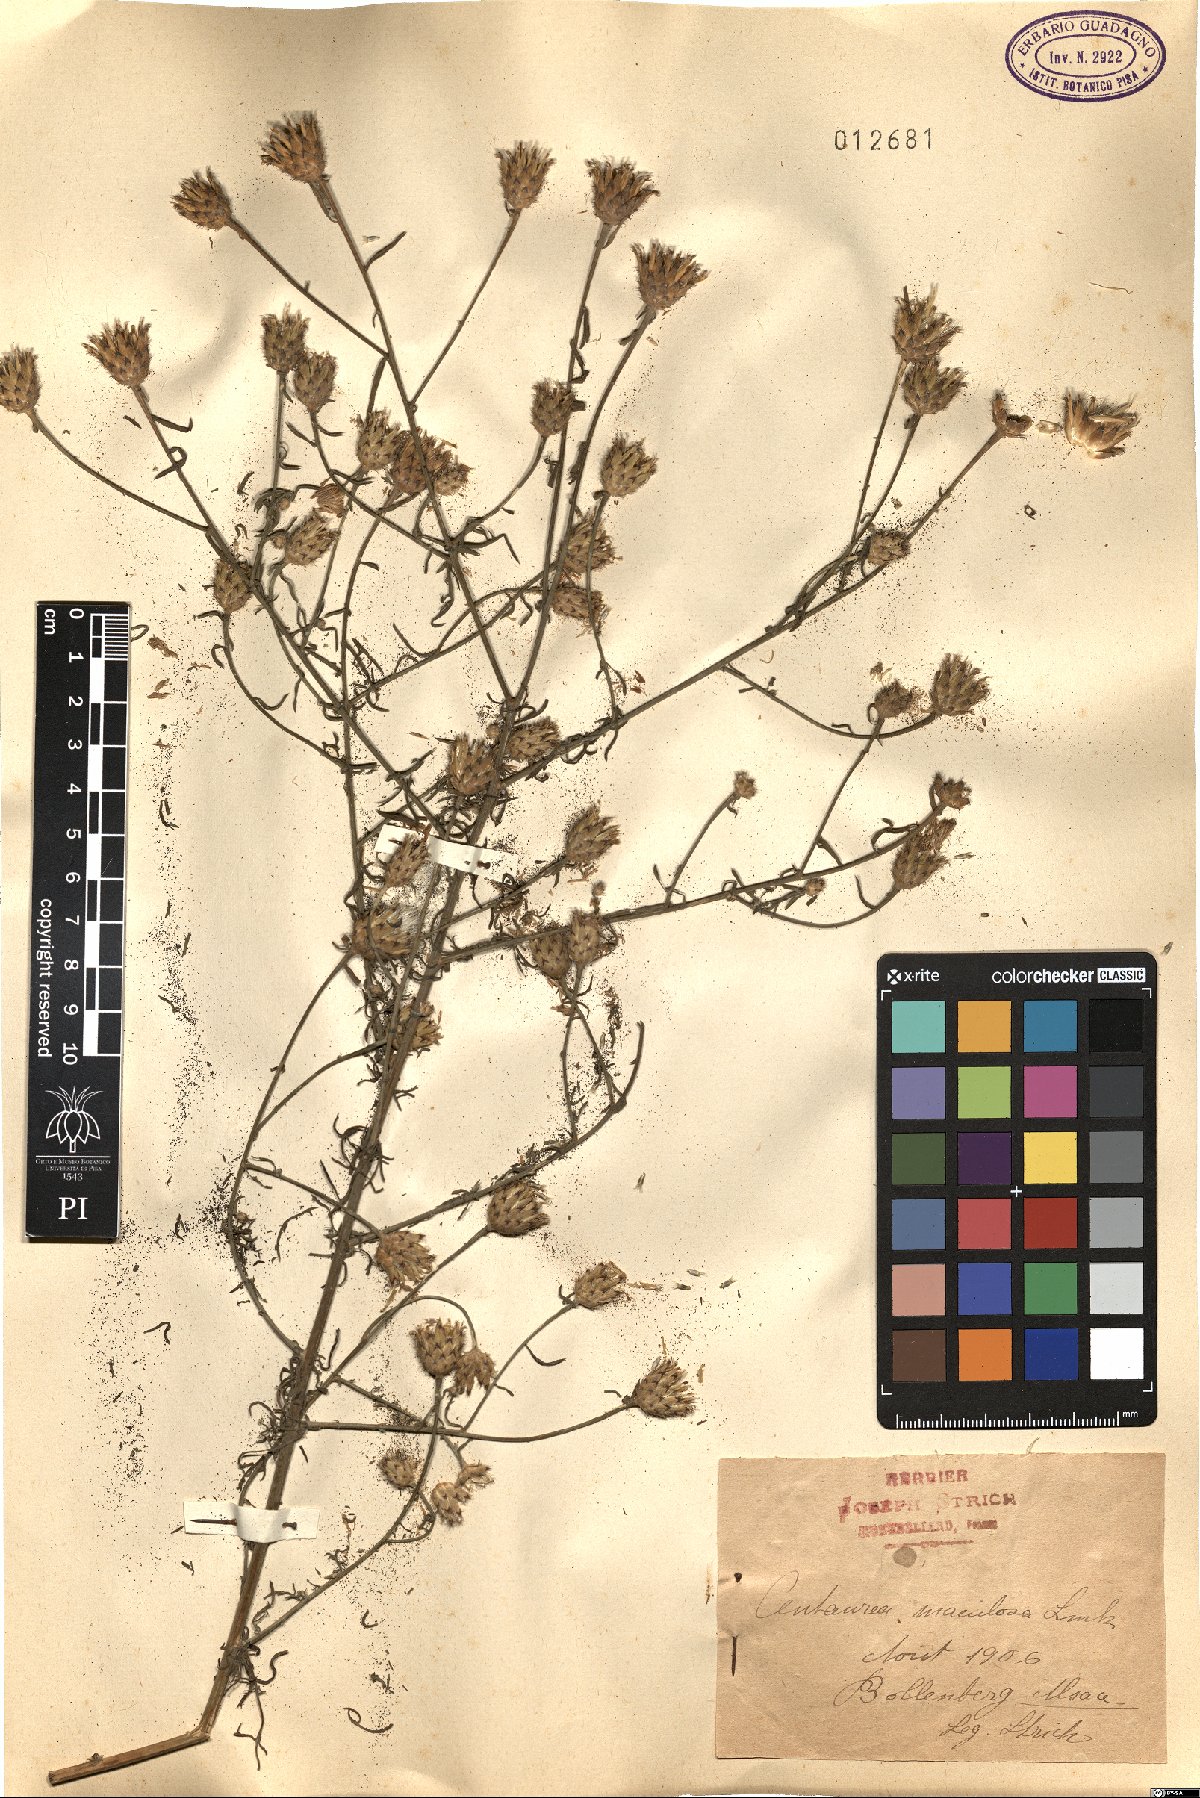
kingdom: Plantae
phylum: Tracheophyta
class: Magnoliopsida
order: Asterales
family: Asteraceae
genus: Centaurea
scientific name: Centaurea stoebe
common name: Spotted knapweed
